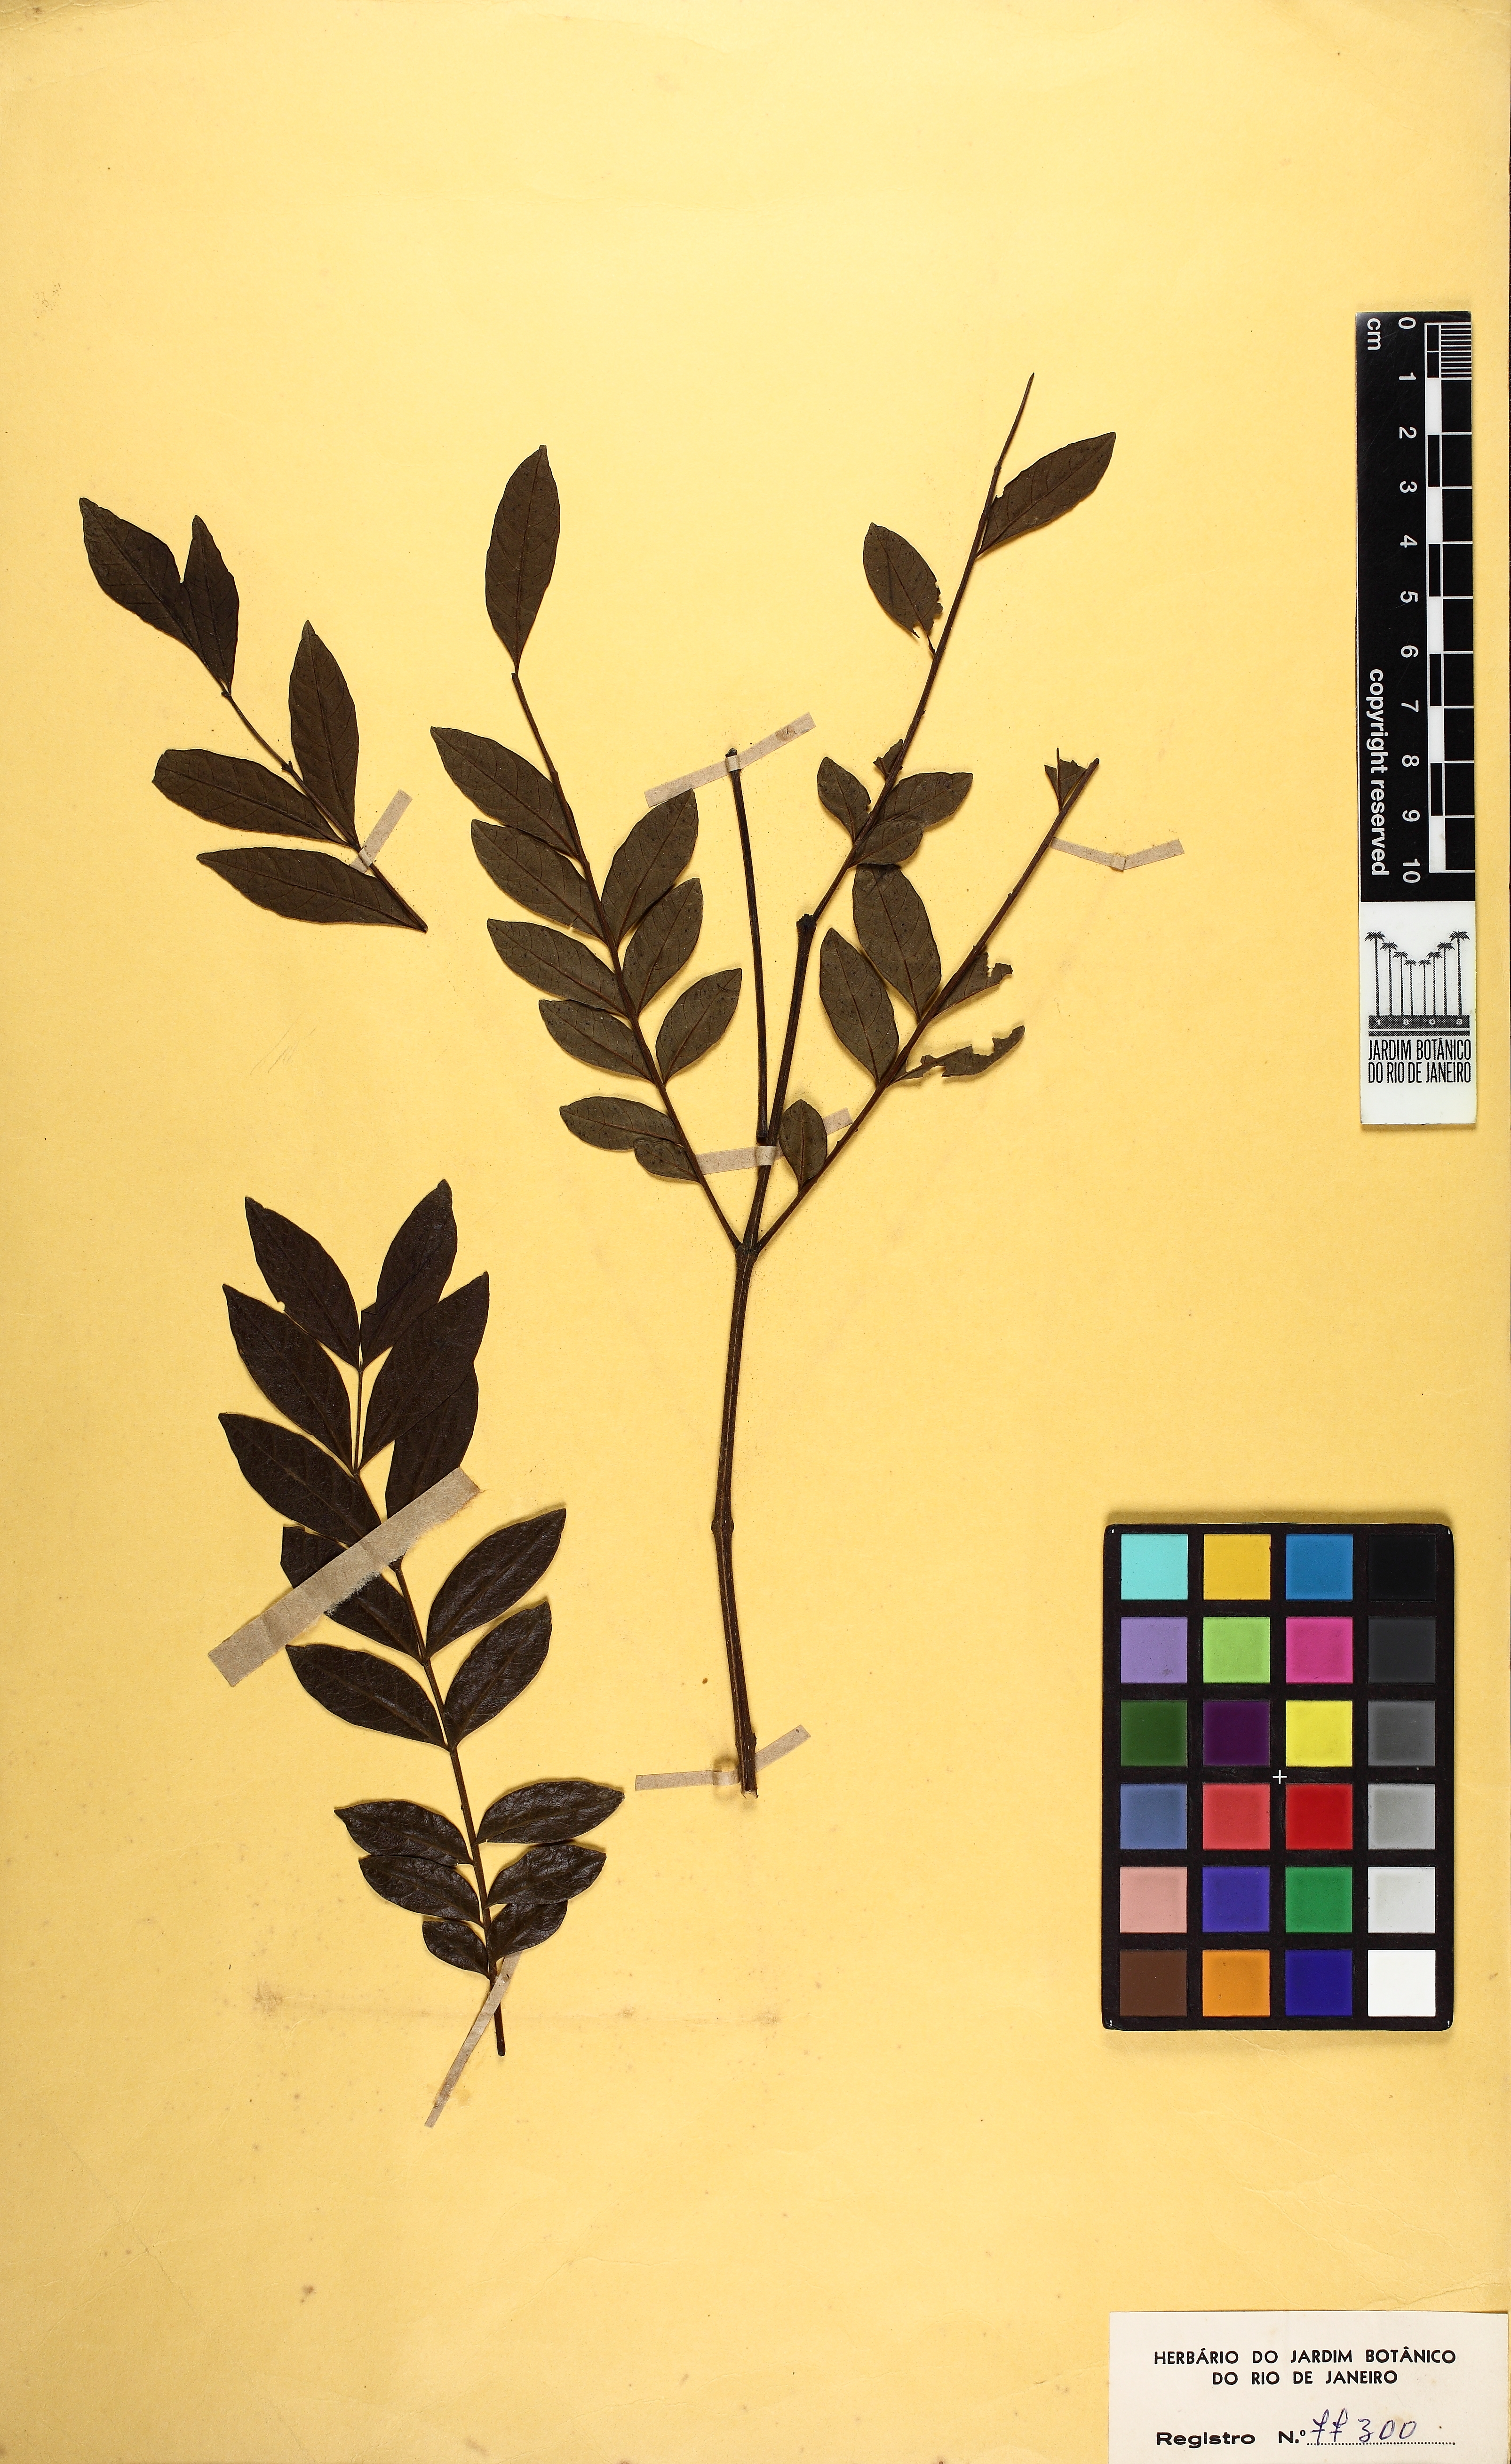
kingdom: Plantae
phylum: Tracheophyta
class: Magnoliopsida
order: Lamiales
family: Bignoniaceae
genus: Jacaranda
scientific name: Jacaranda micrantha
